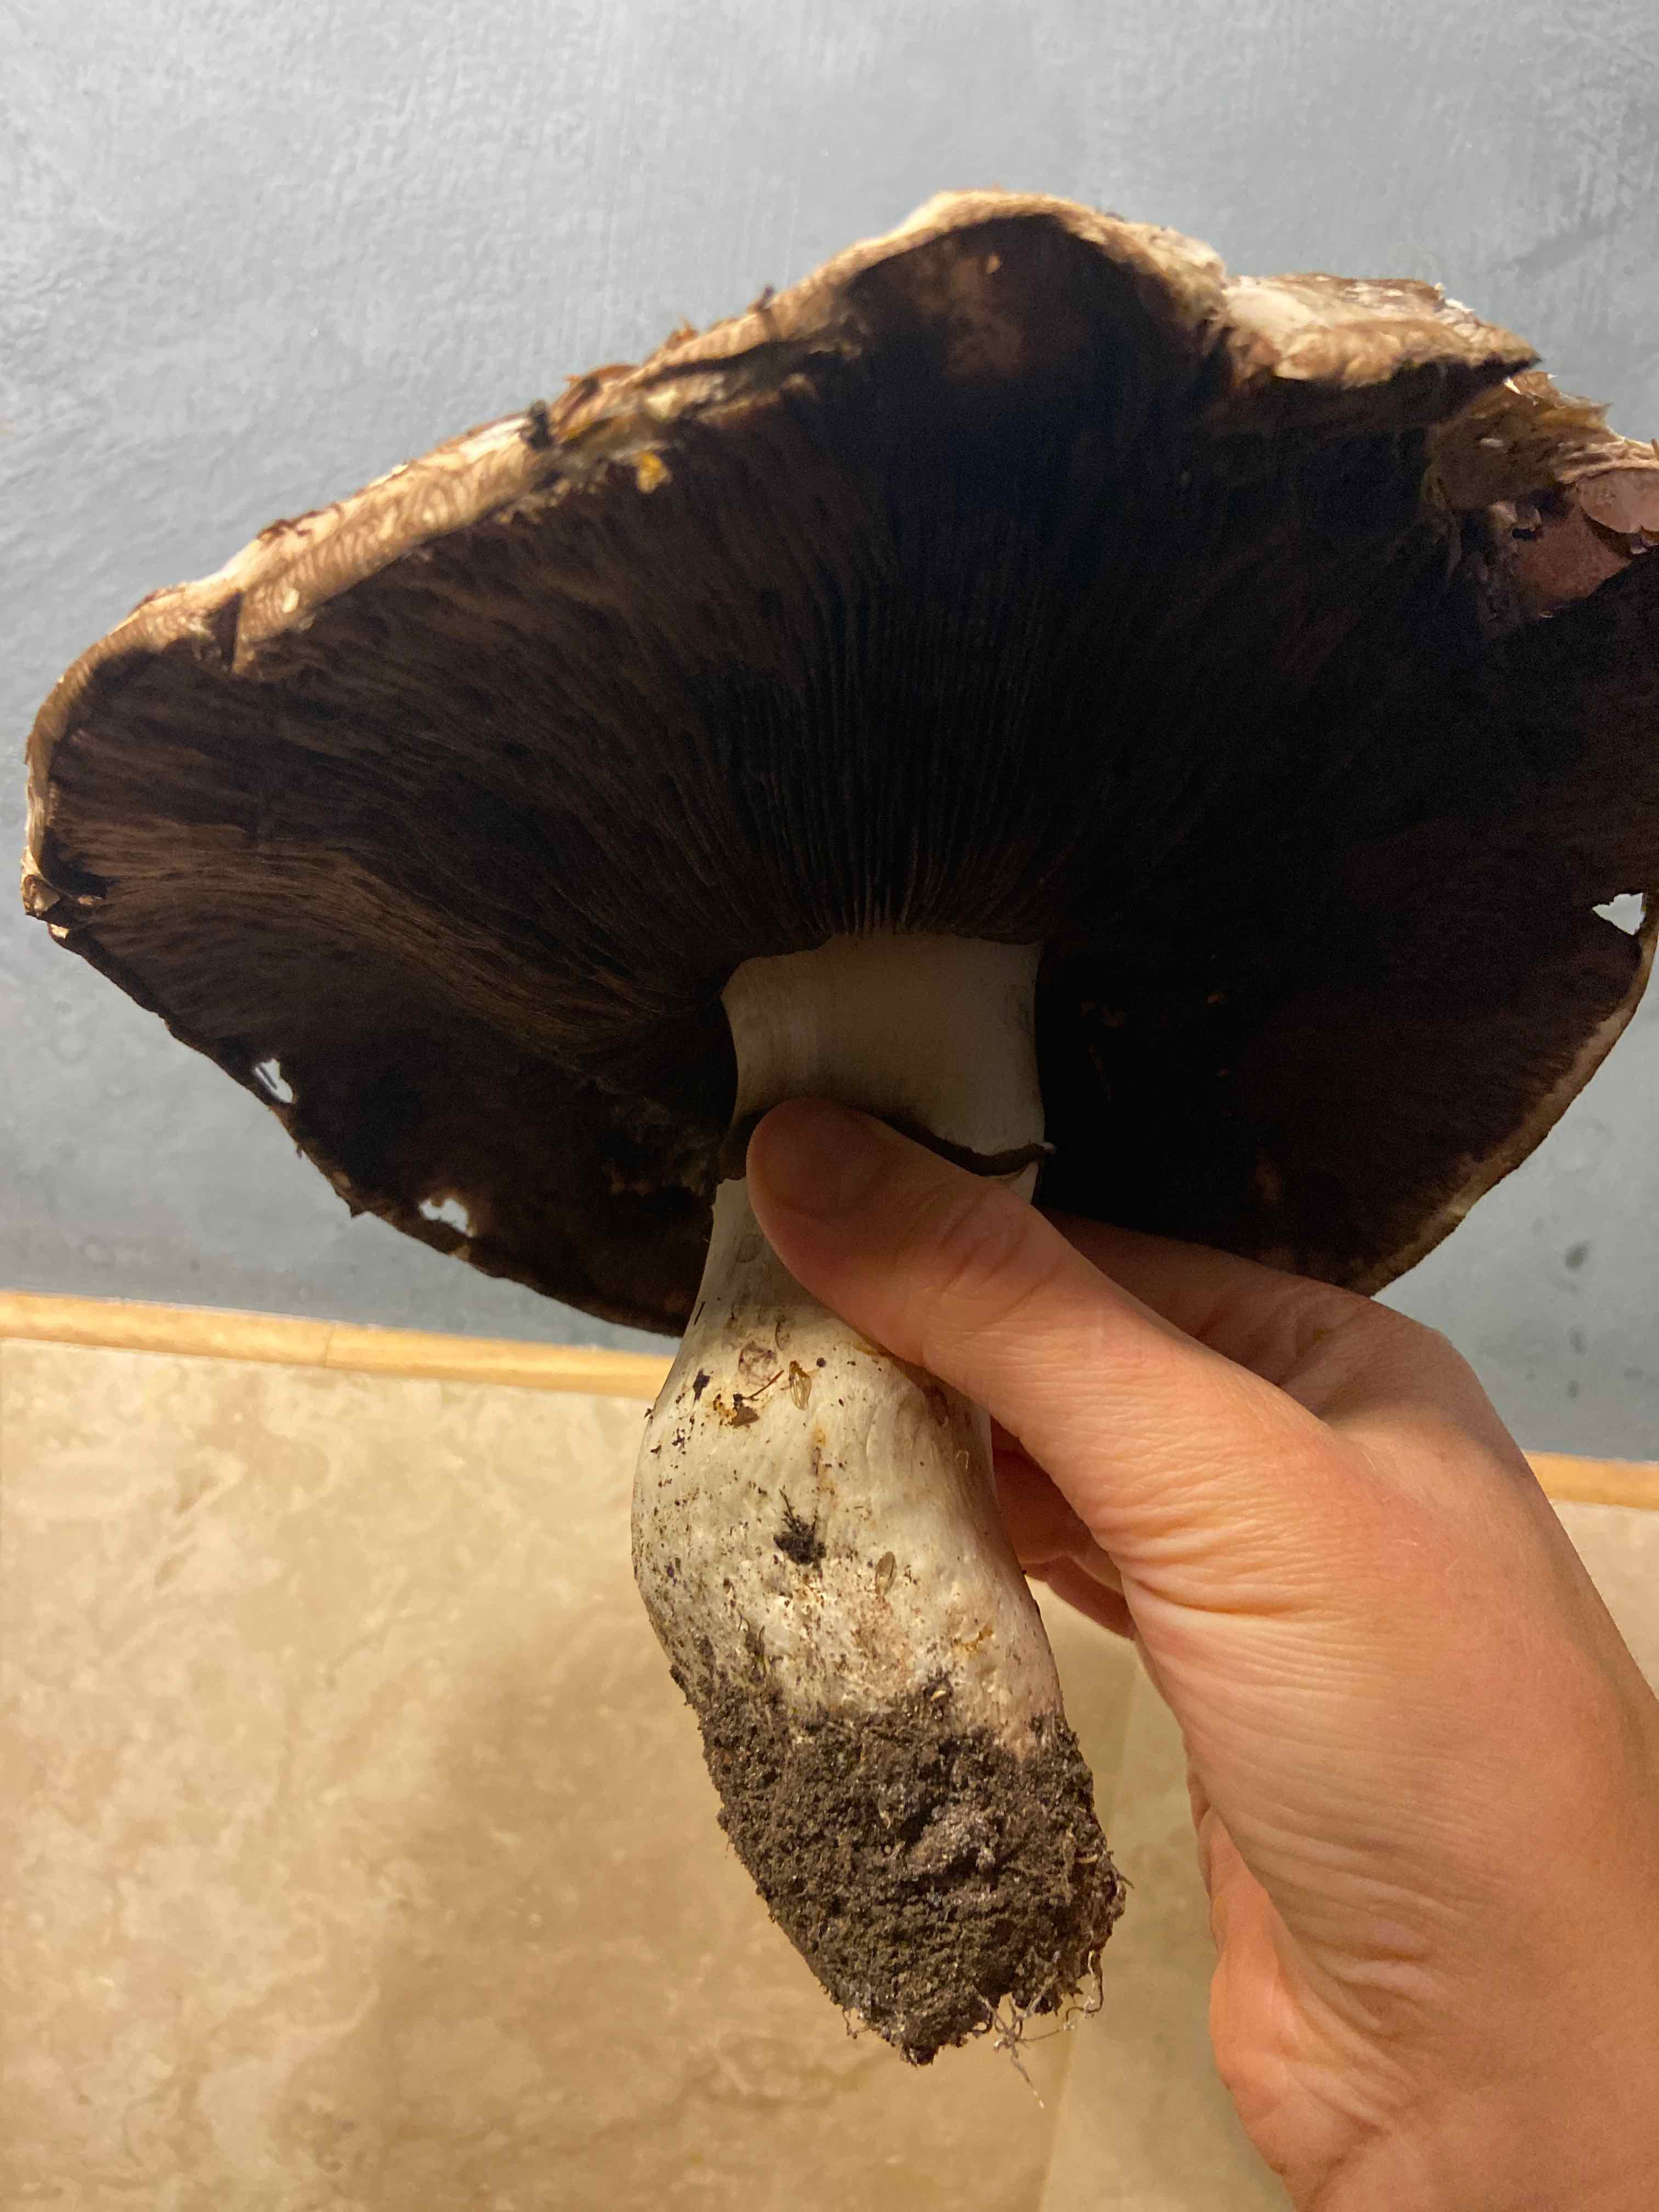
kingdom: Fungi
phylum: Basidiomycota
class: Agaricomycetes
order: Agaricales
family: Agaricaceae
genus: Agaricus
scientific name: Agaricus
